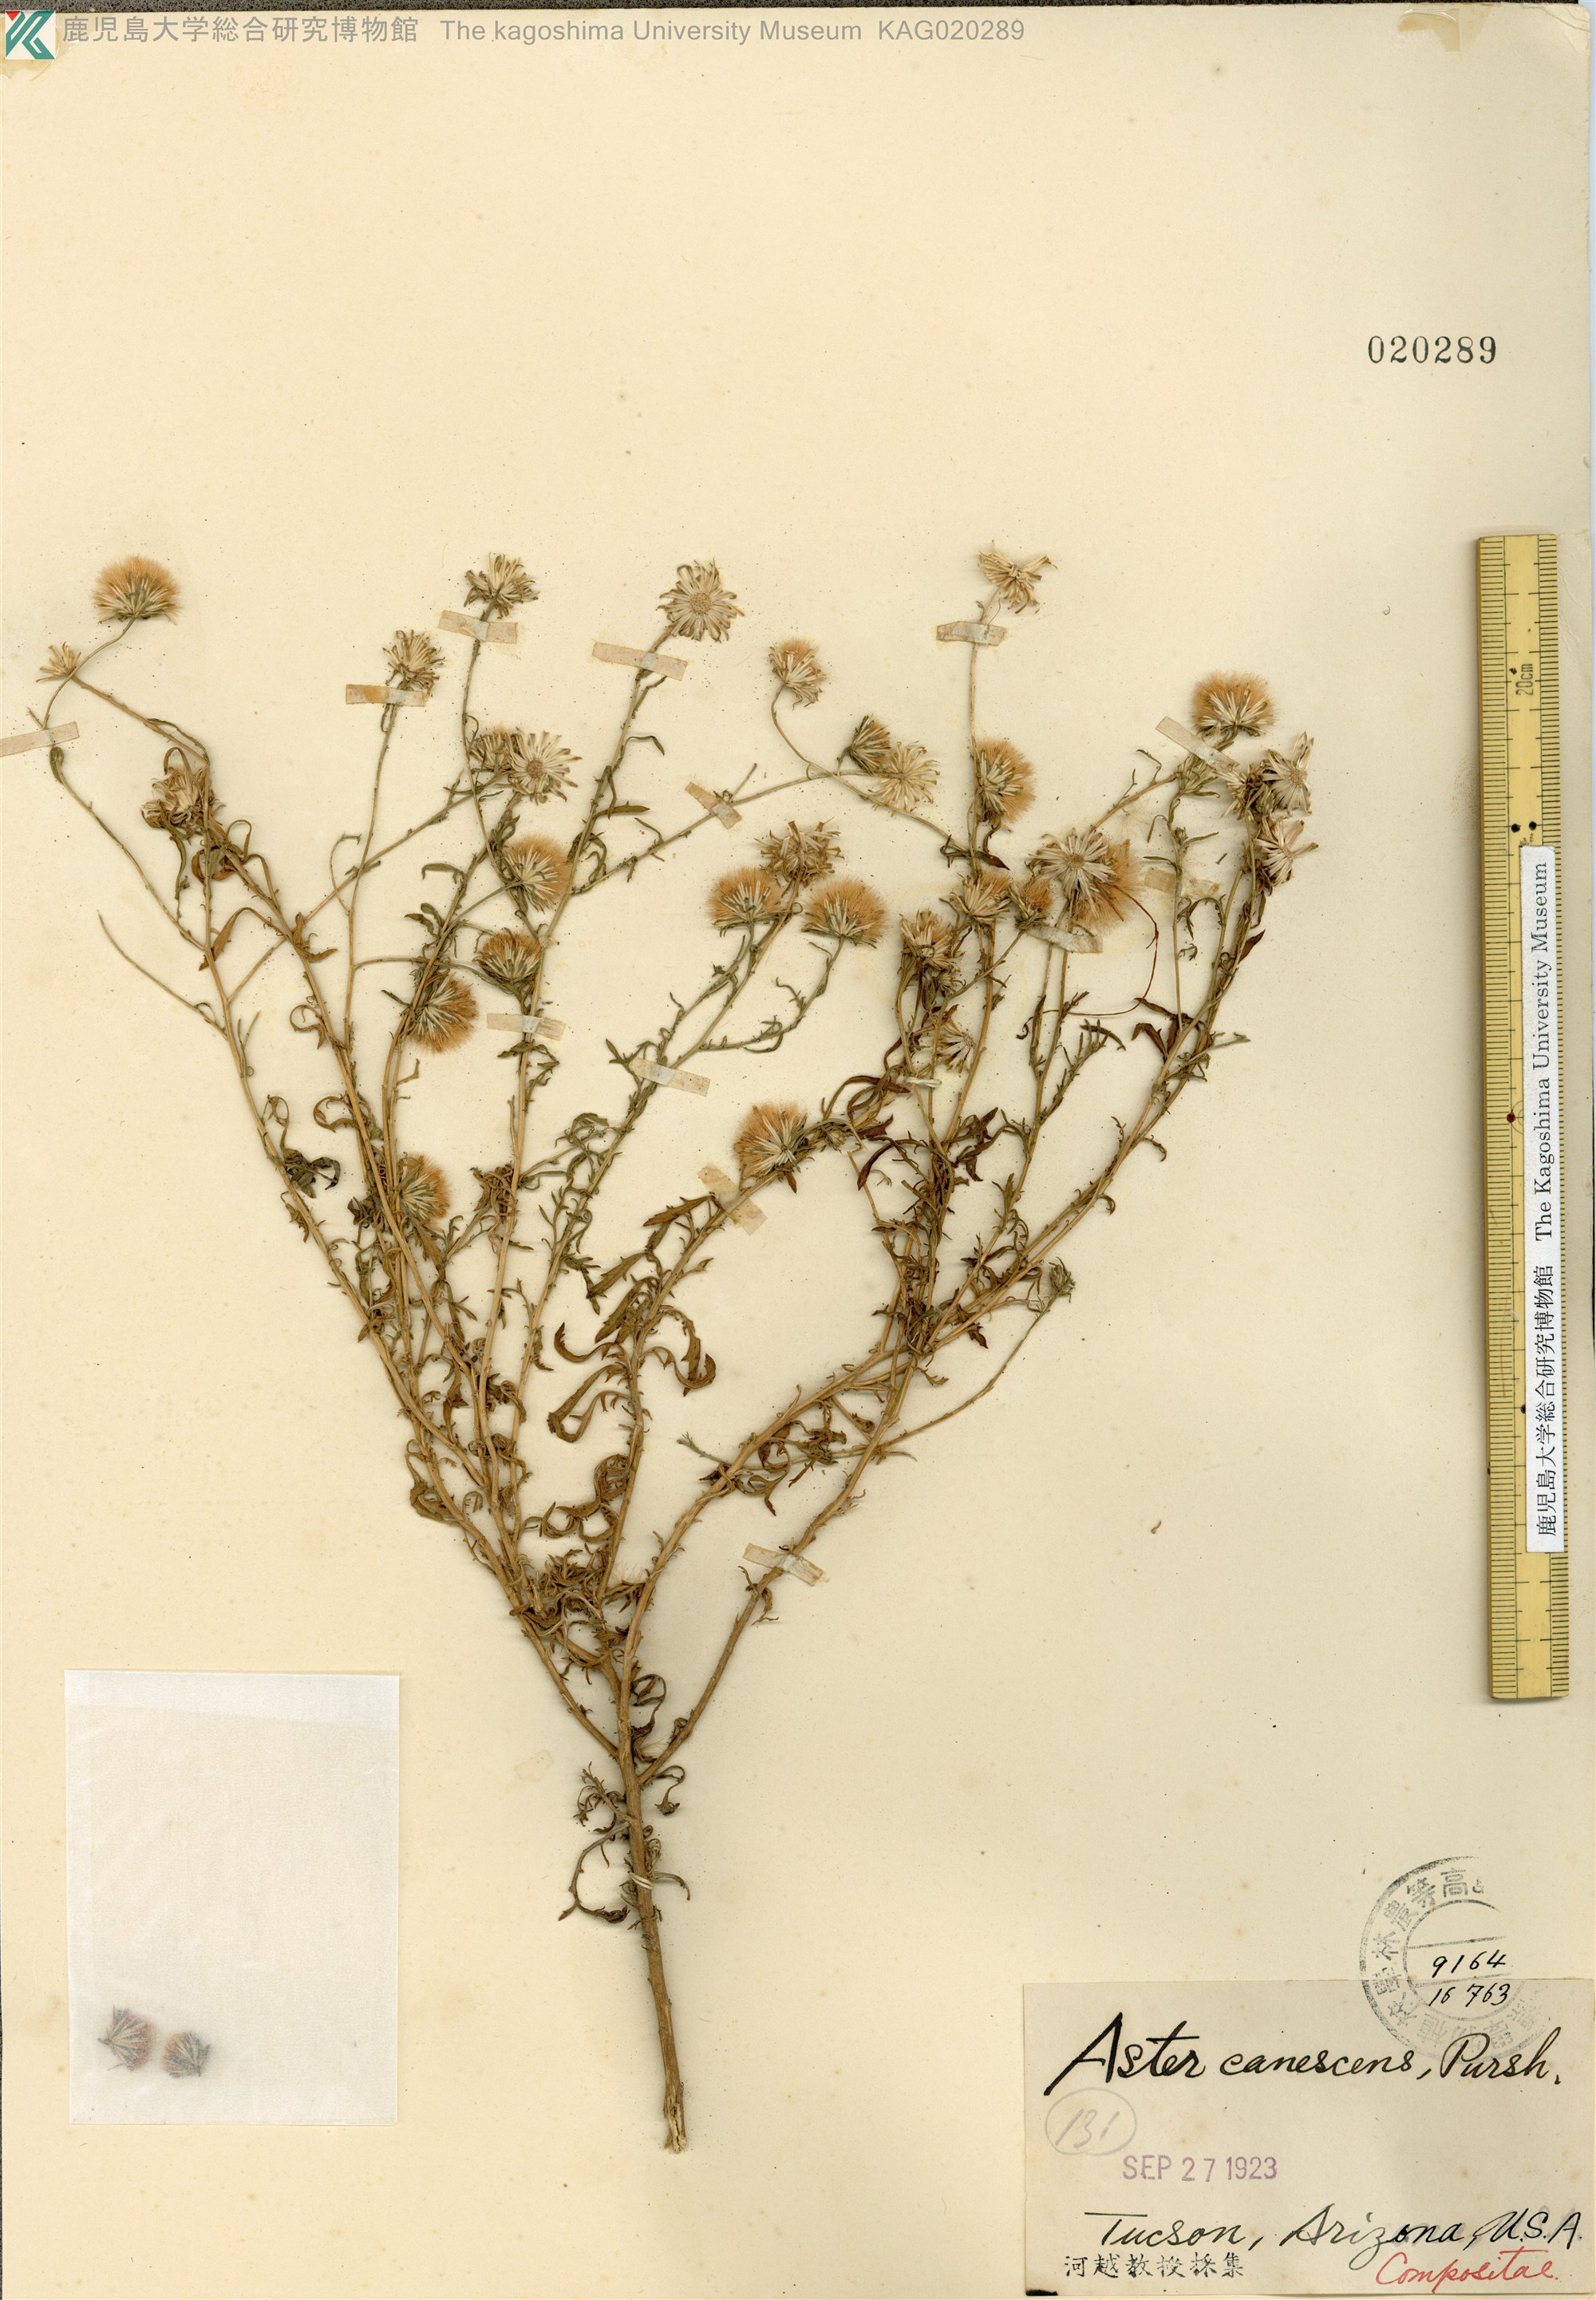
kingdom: Plantae
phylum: Tracheophyta
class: Magnoliopsida
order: Asterales
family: Asteraceae
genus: Dieteria
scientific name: Dieteria canescens
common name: Hoary-aster
